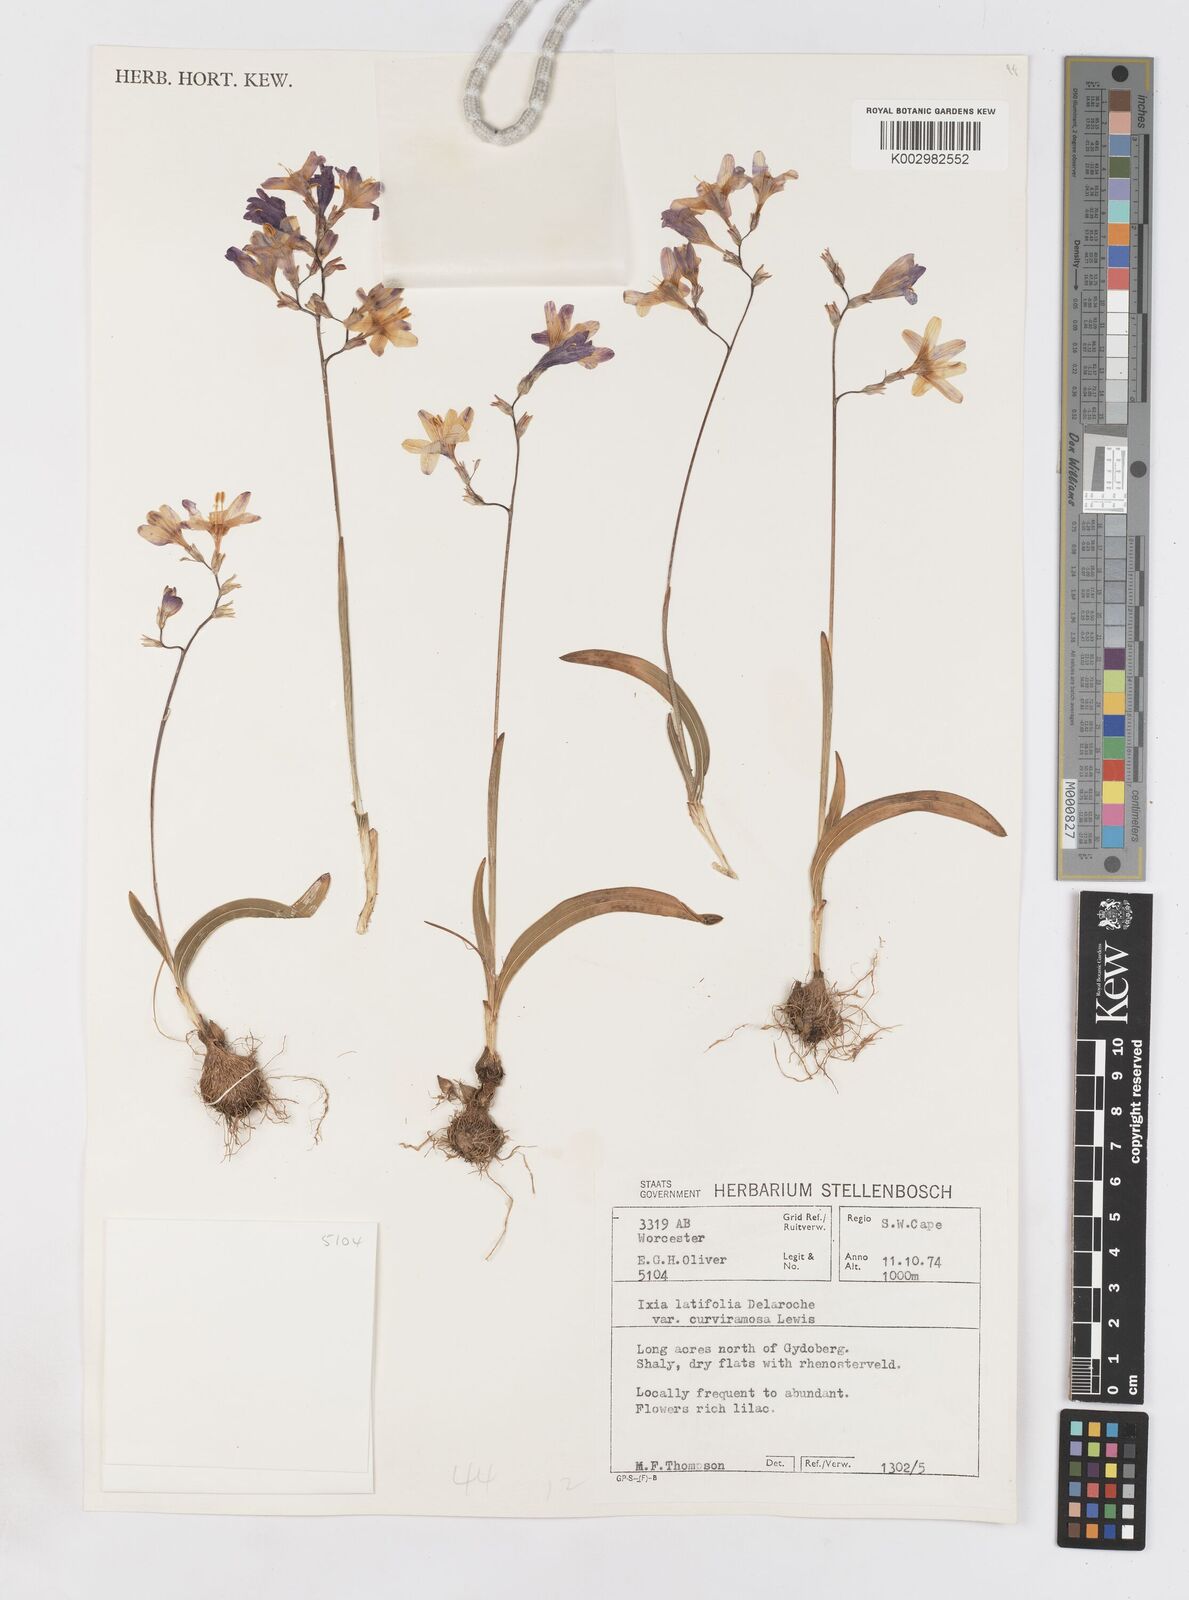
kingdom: Plantae
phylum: Tracheophyta
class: Liliopsida
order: Asparagales
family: Iridaceae
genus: Ixia
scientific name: Ixia latifolia
